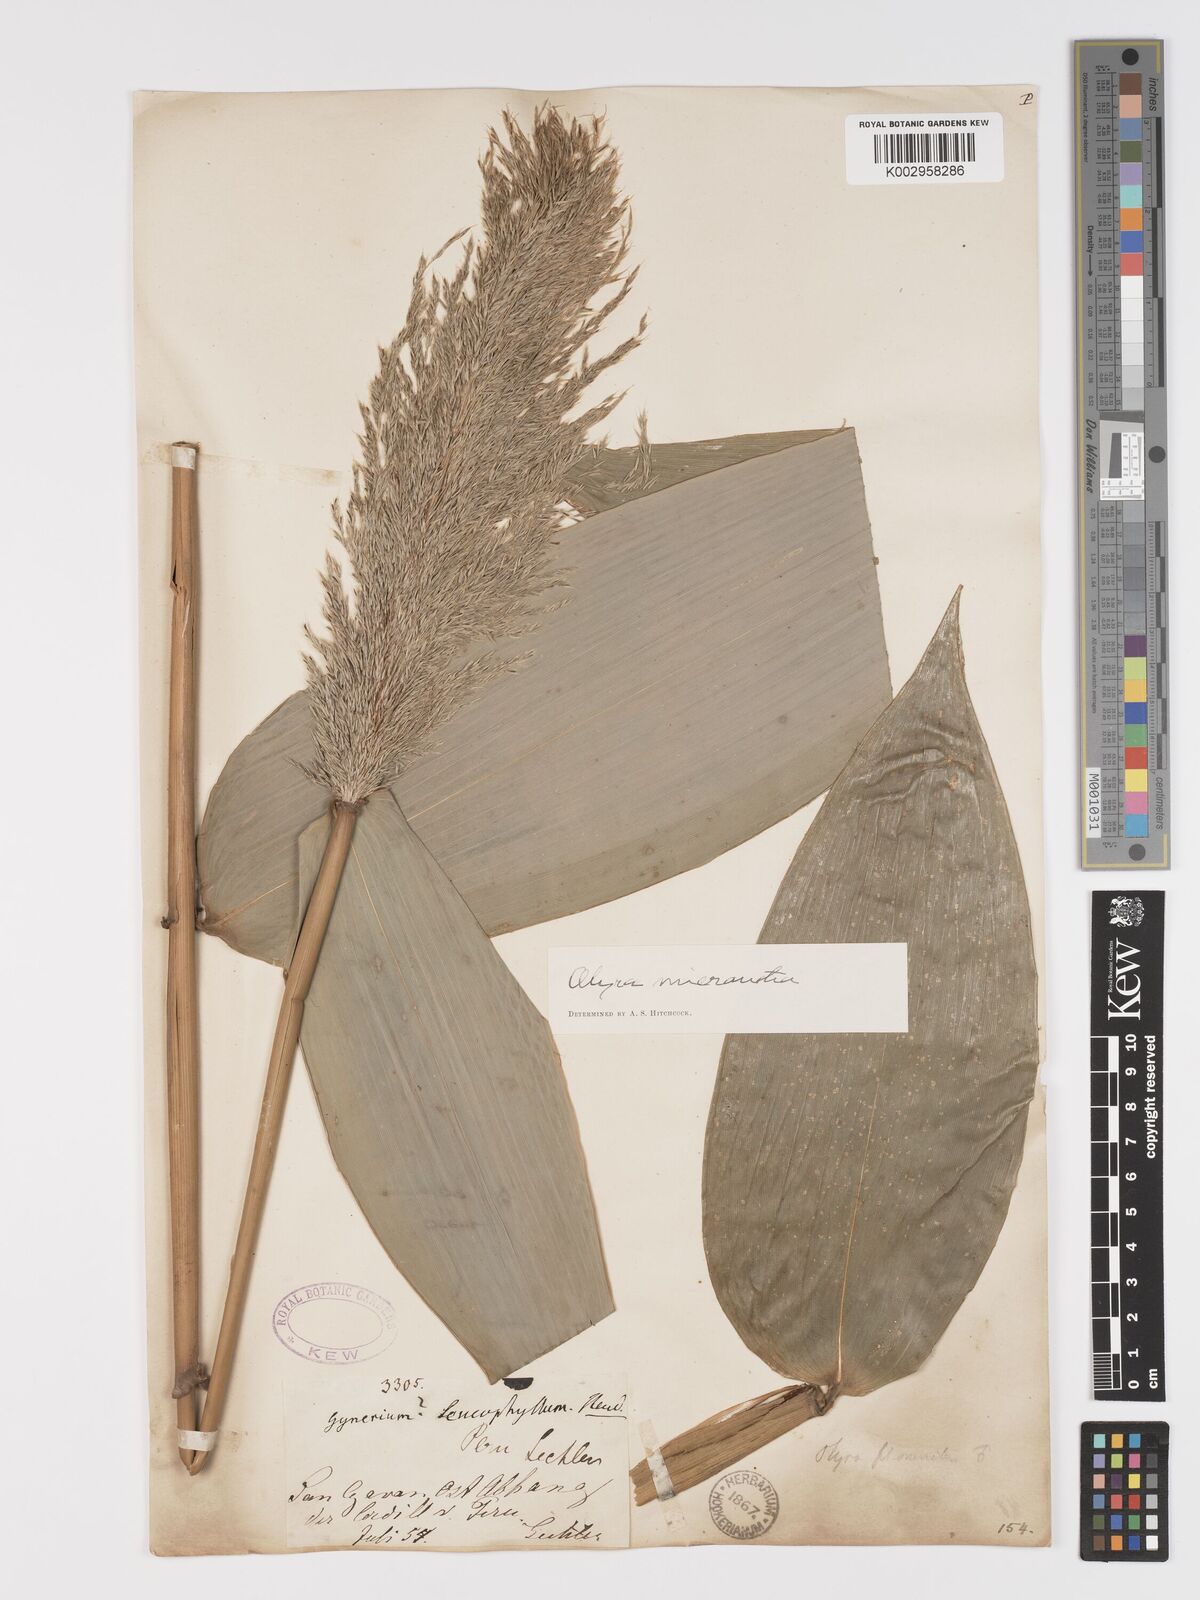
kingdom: Plantae
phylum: Tracheophyta
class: Liliopsida
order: Poales
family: Poaceae
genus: Taquara
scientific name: Taquara micrantha
